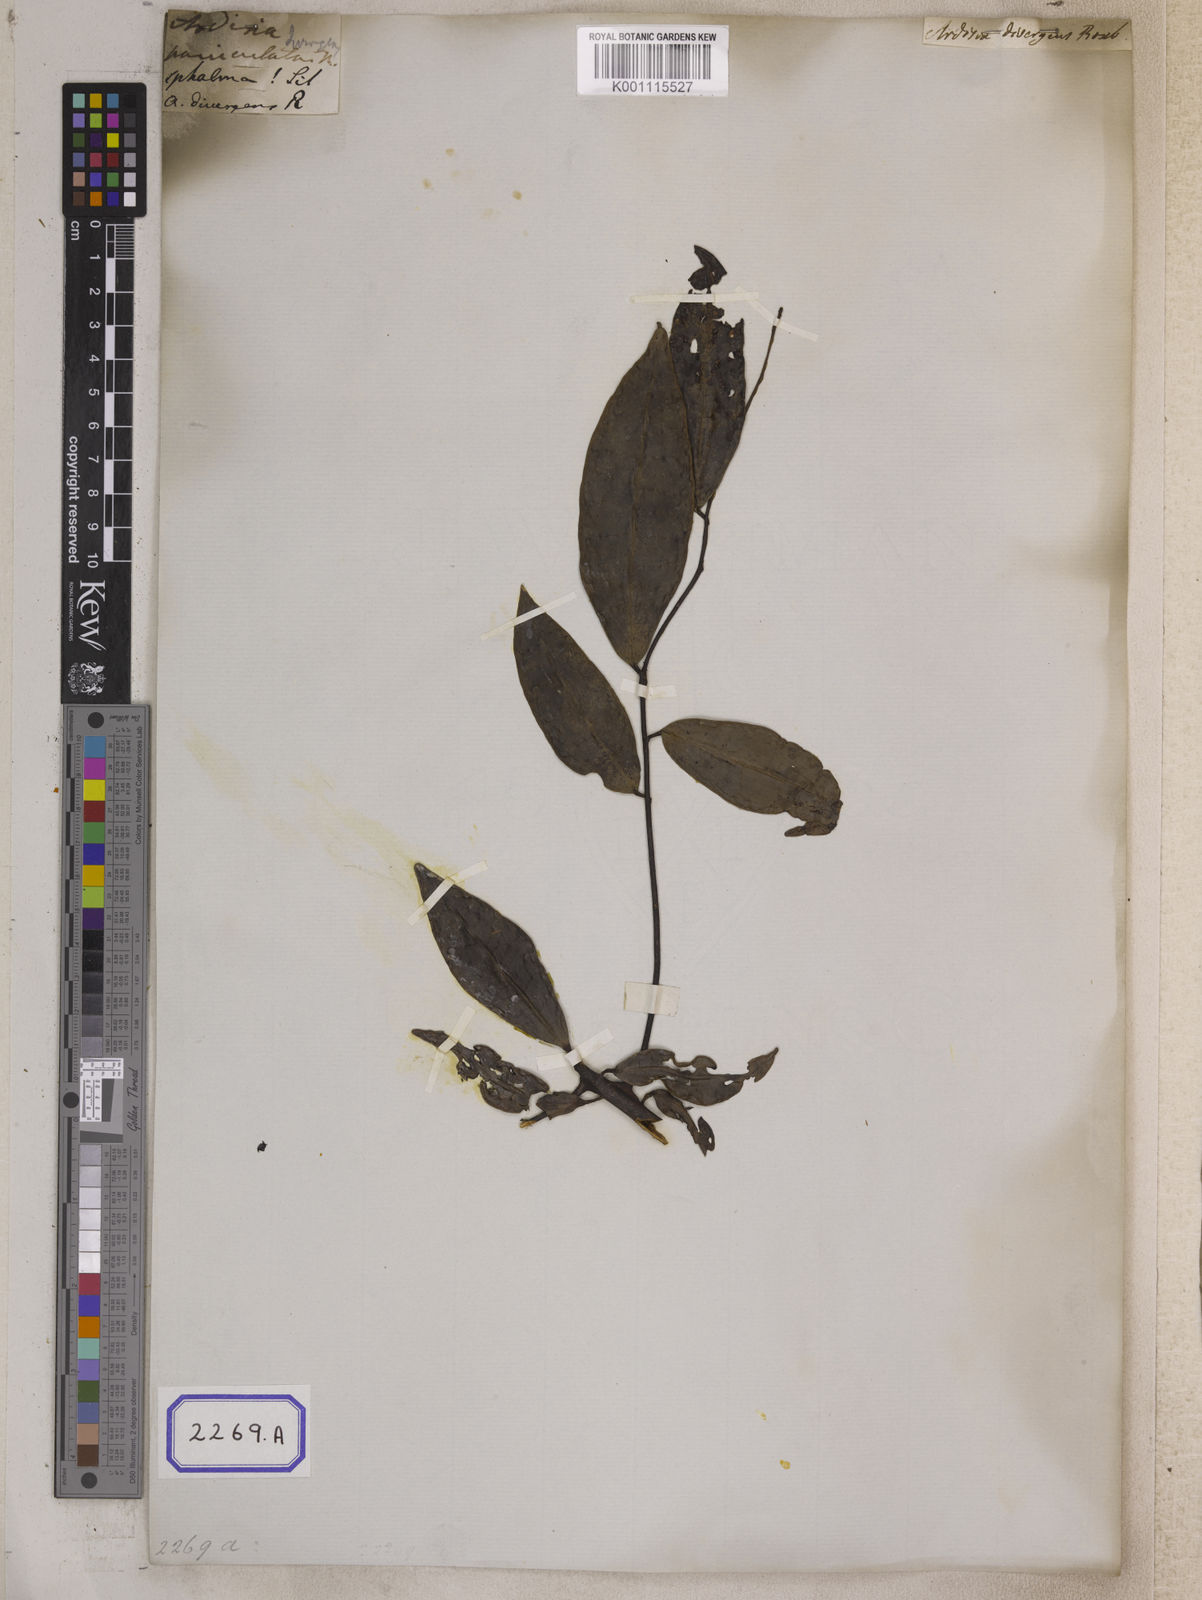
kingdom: Plantae
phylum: Tracheophyta
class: Magnoliopsida
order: Ericales
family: Primulaceae
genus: Ardisia
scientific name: Ardisia divergens
